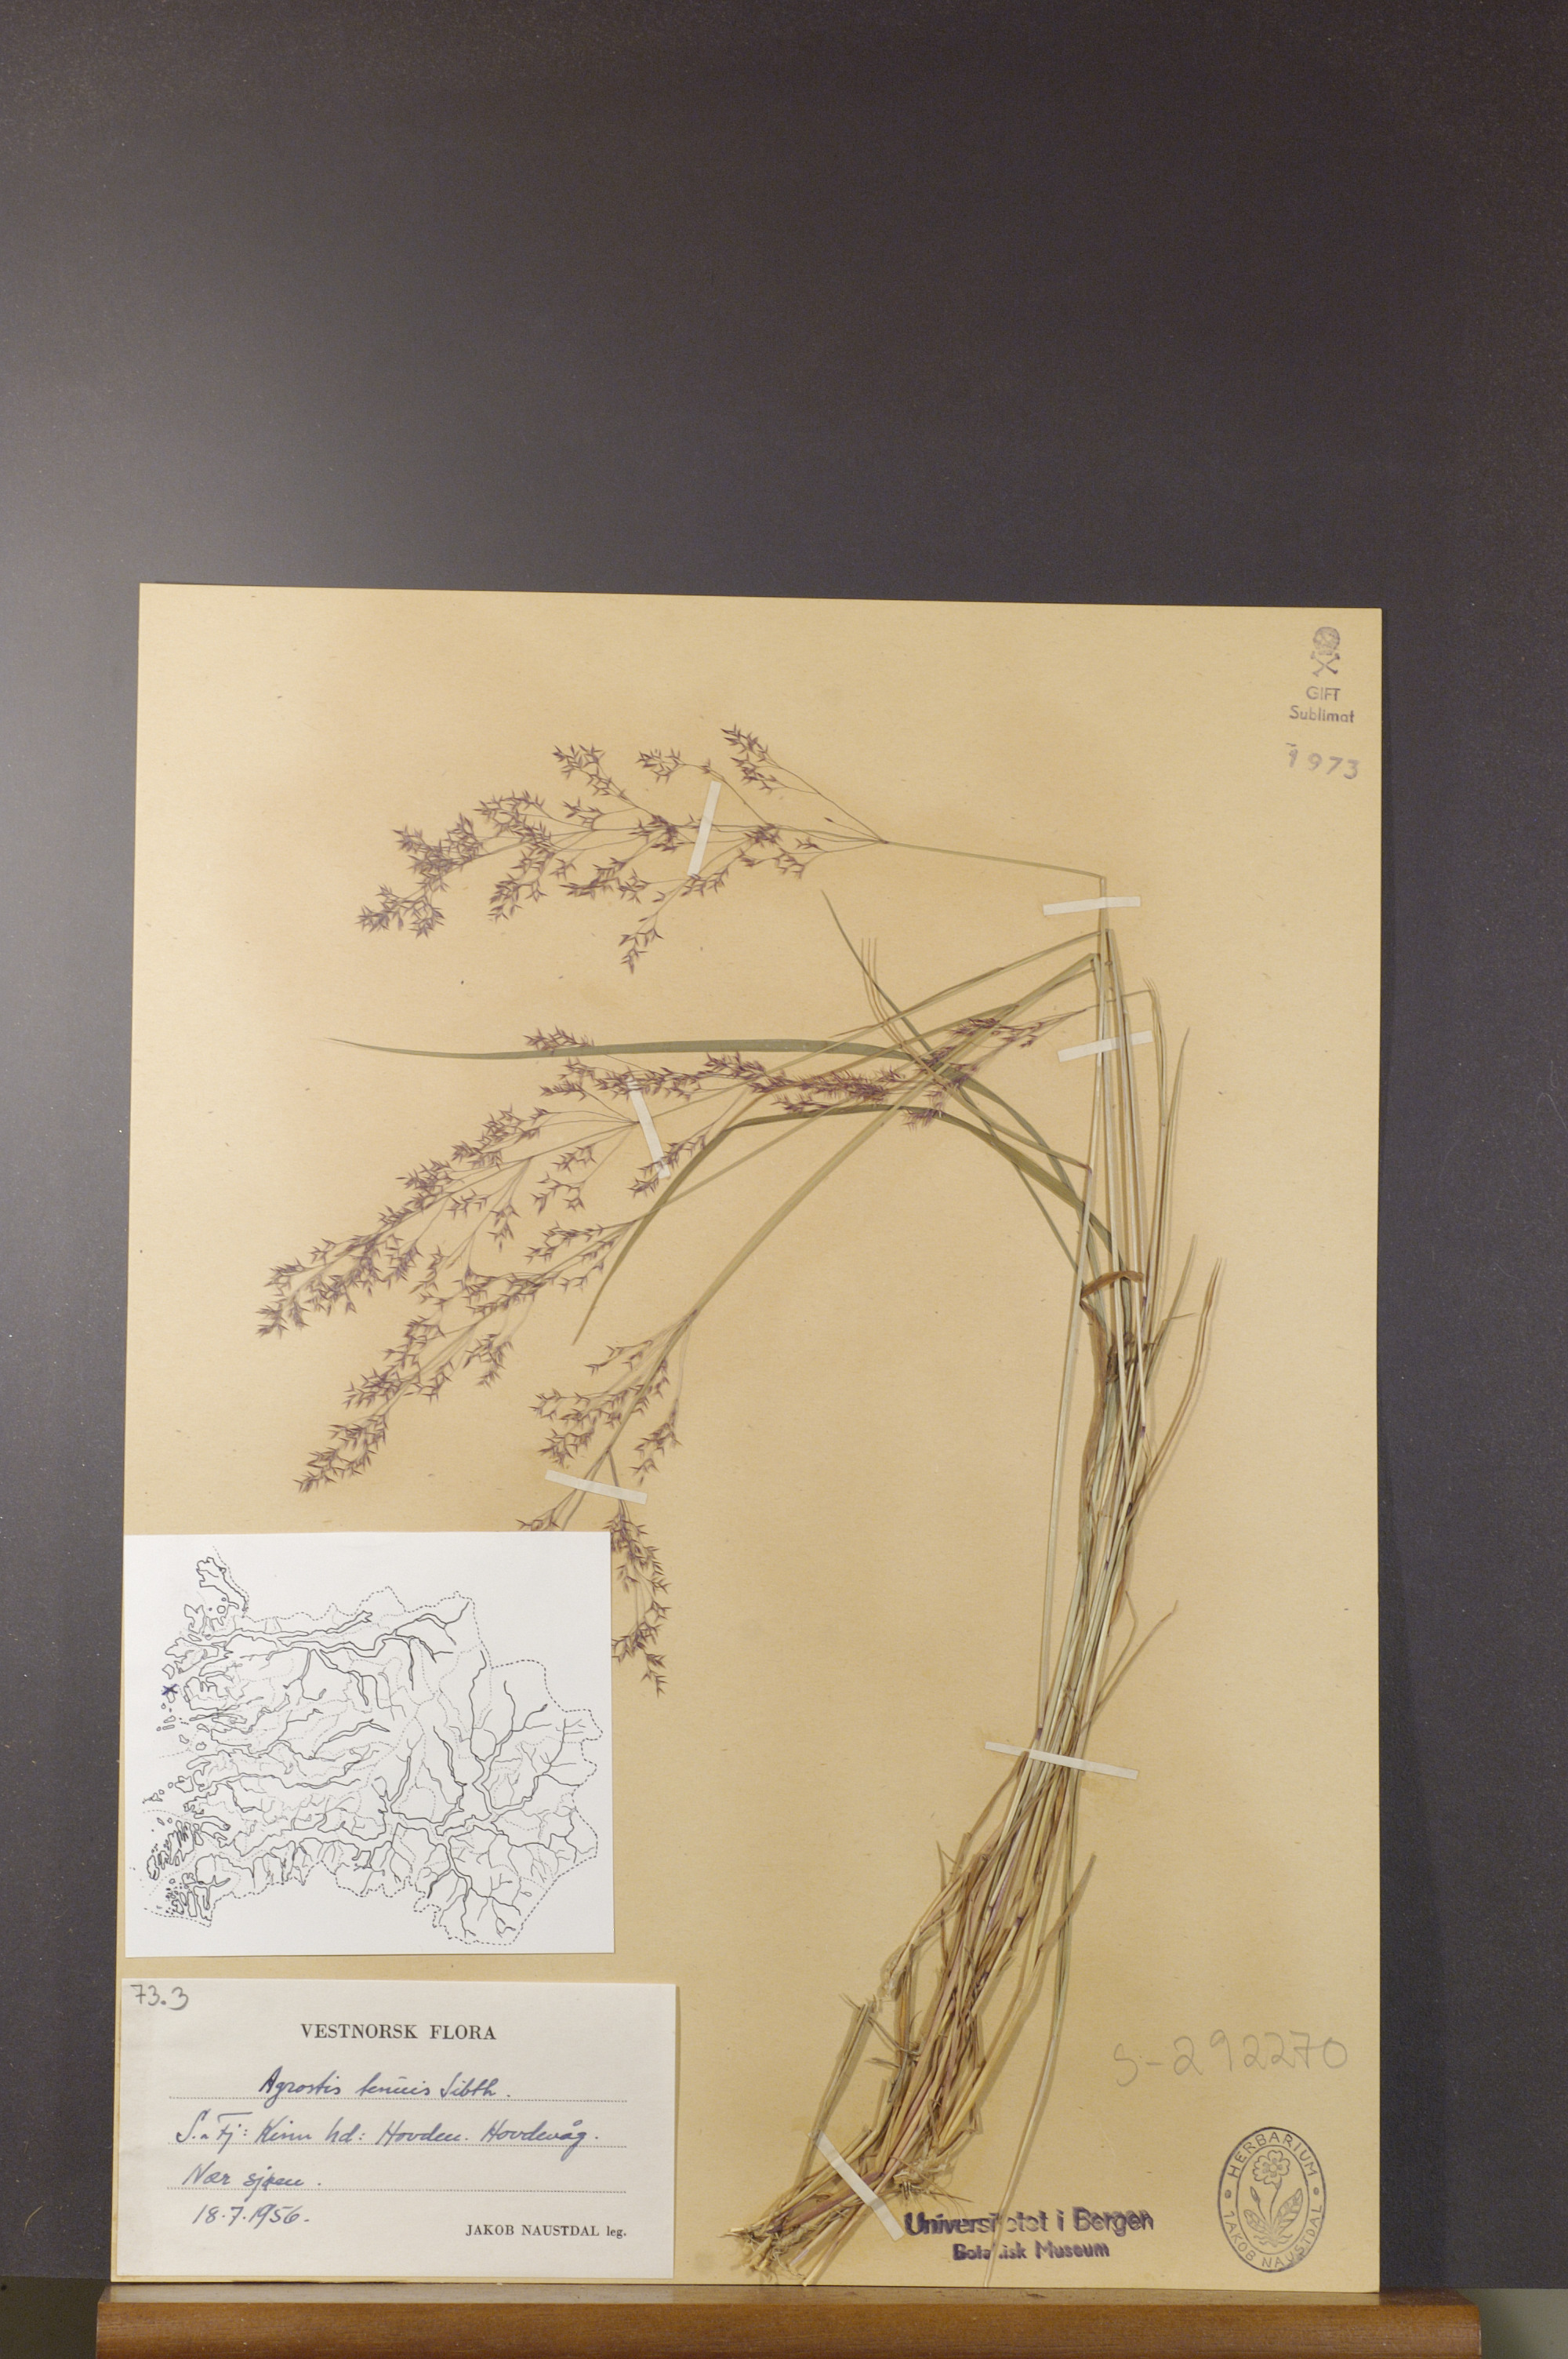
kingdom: Plantae
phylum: Tracheophyta
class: Liliopsida
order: Poales
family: Poaceae
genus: Agrostis
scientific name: Agrostis capillaris
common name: Colonial bentgrass
